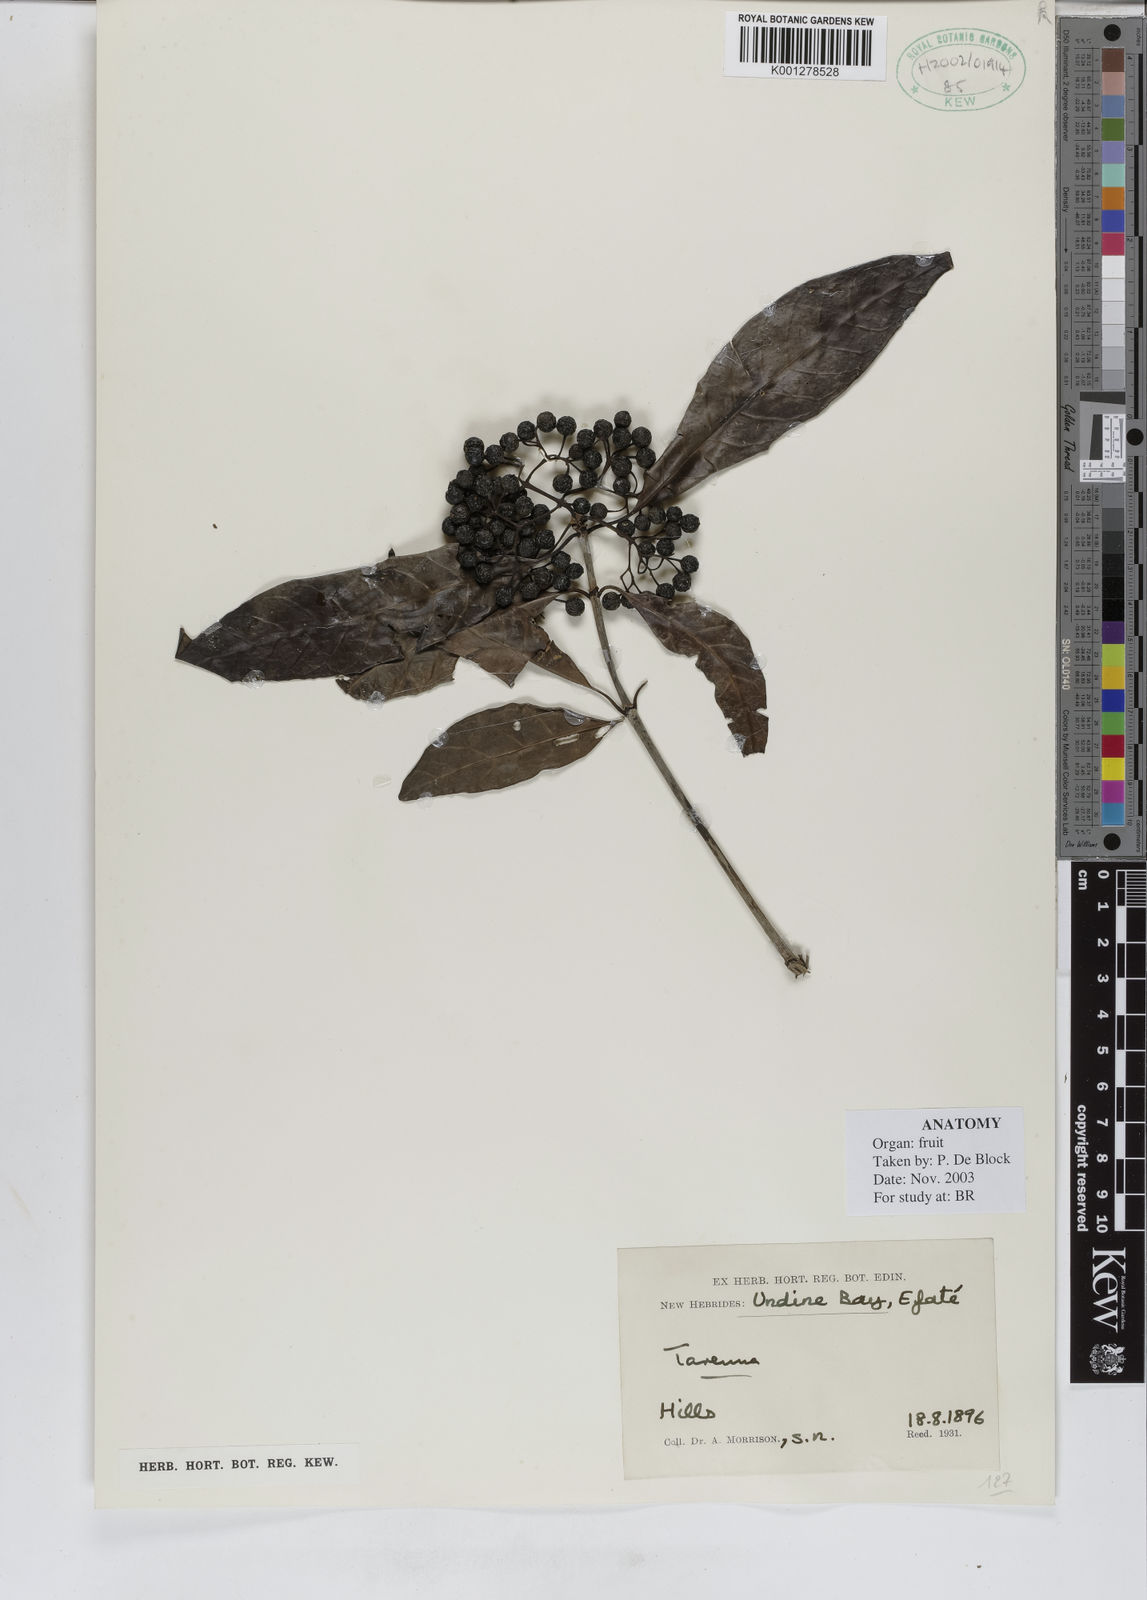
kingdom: Plantae
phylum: Tracheophyta
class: Magnoliopsida
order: Gentianales
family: Rubiaceae
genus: Tarenna
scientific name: Tarenna
